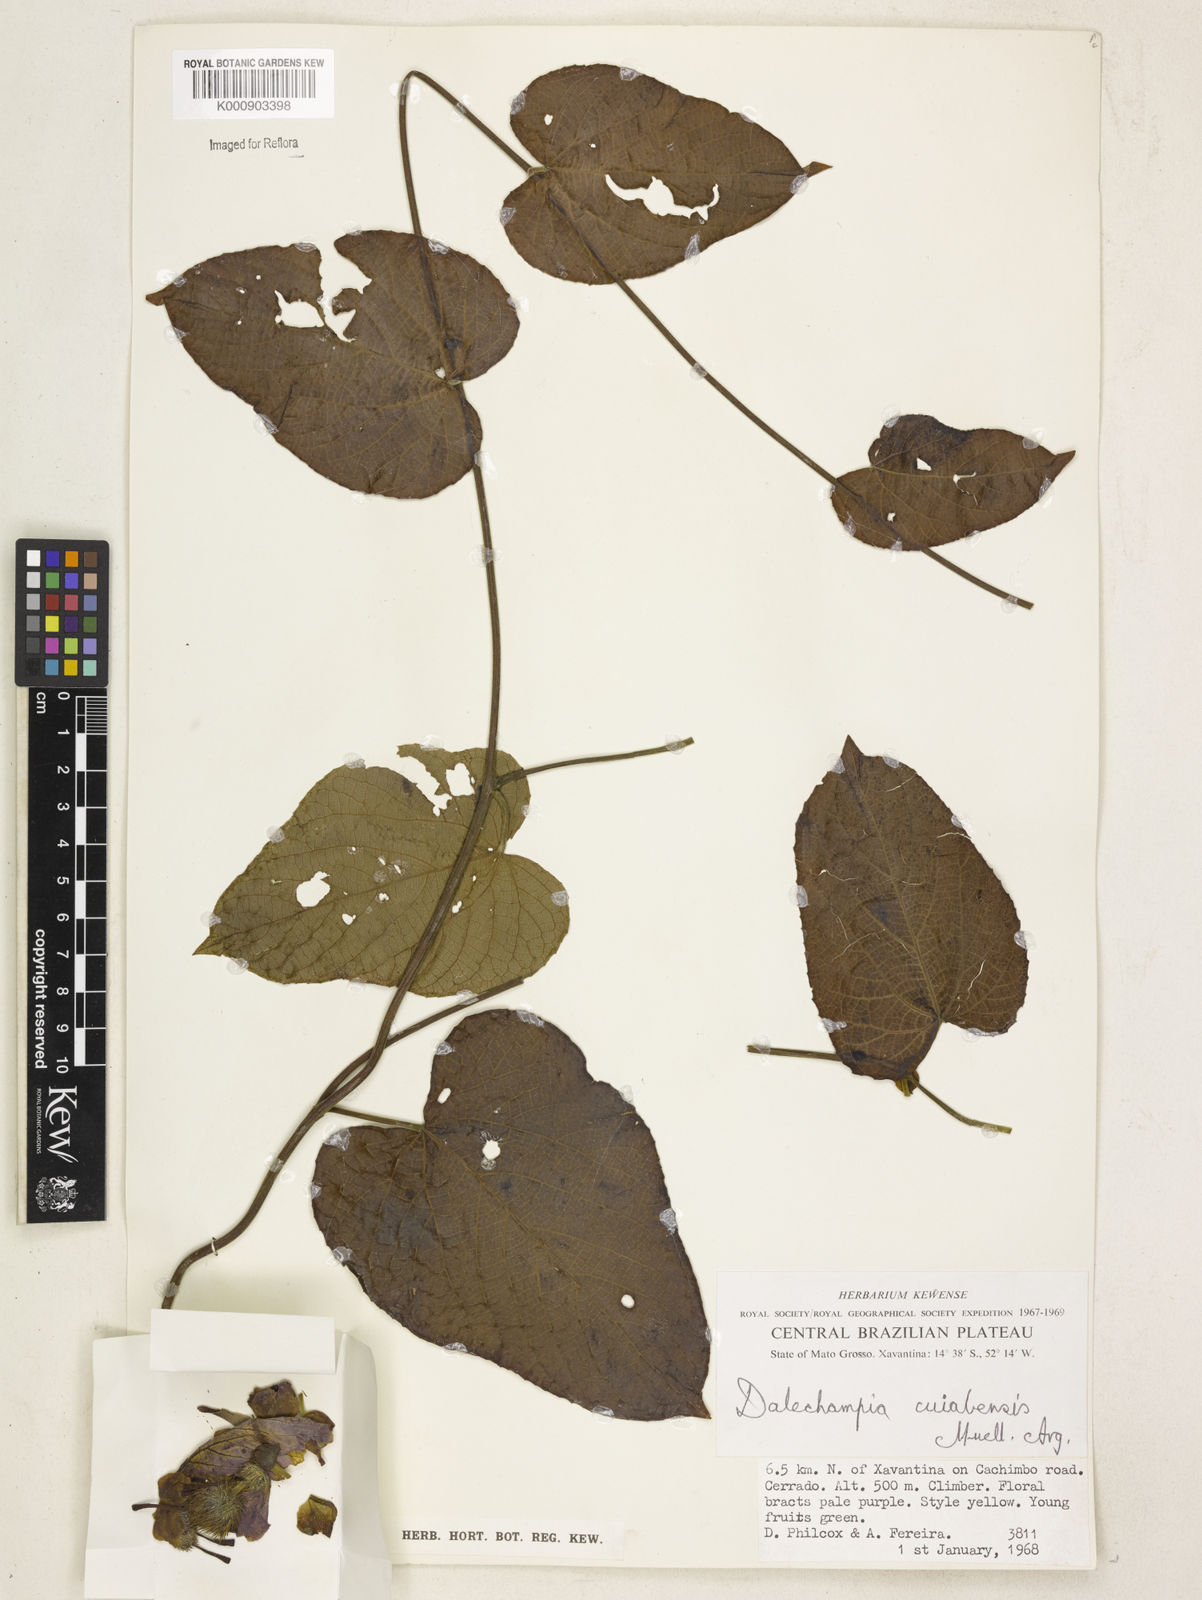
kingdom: Plantae
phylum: Tracheophyta
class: Magnoliopsida
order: Malpighiales
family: Euphorbiaceae
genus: Dalechampia
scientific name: Dalechampia
